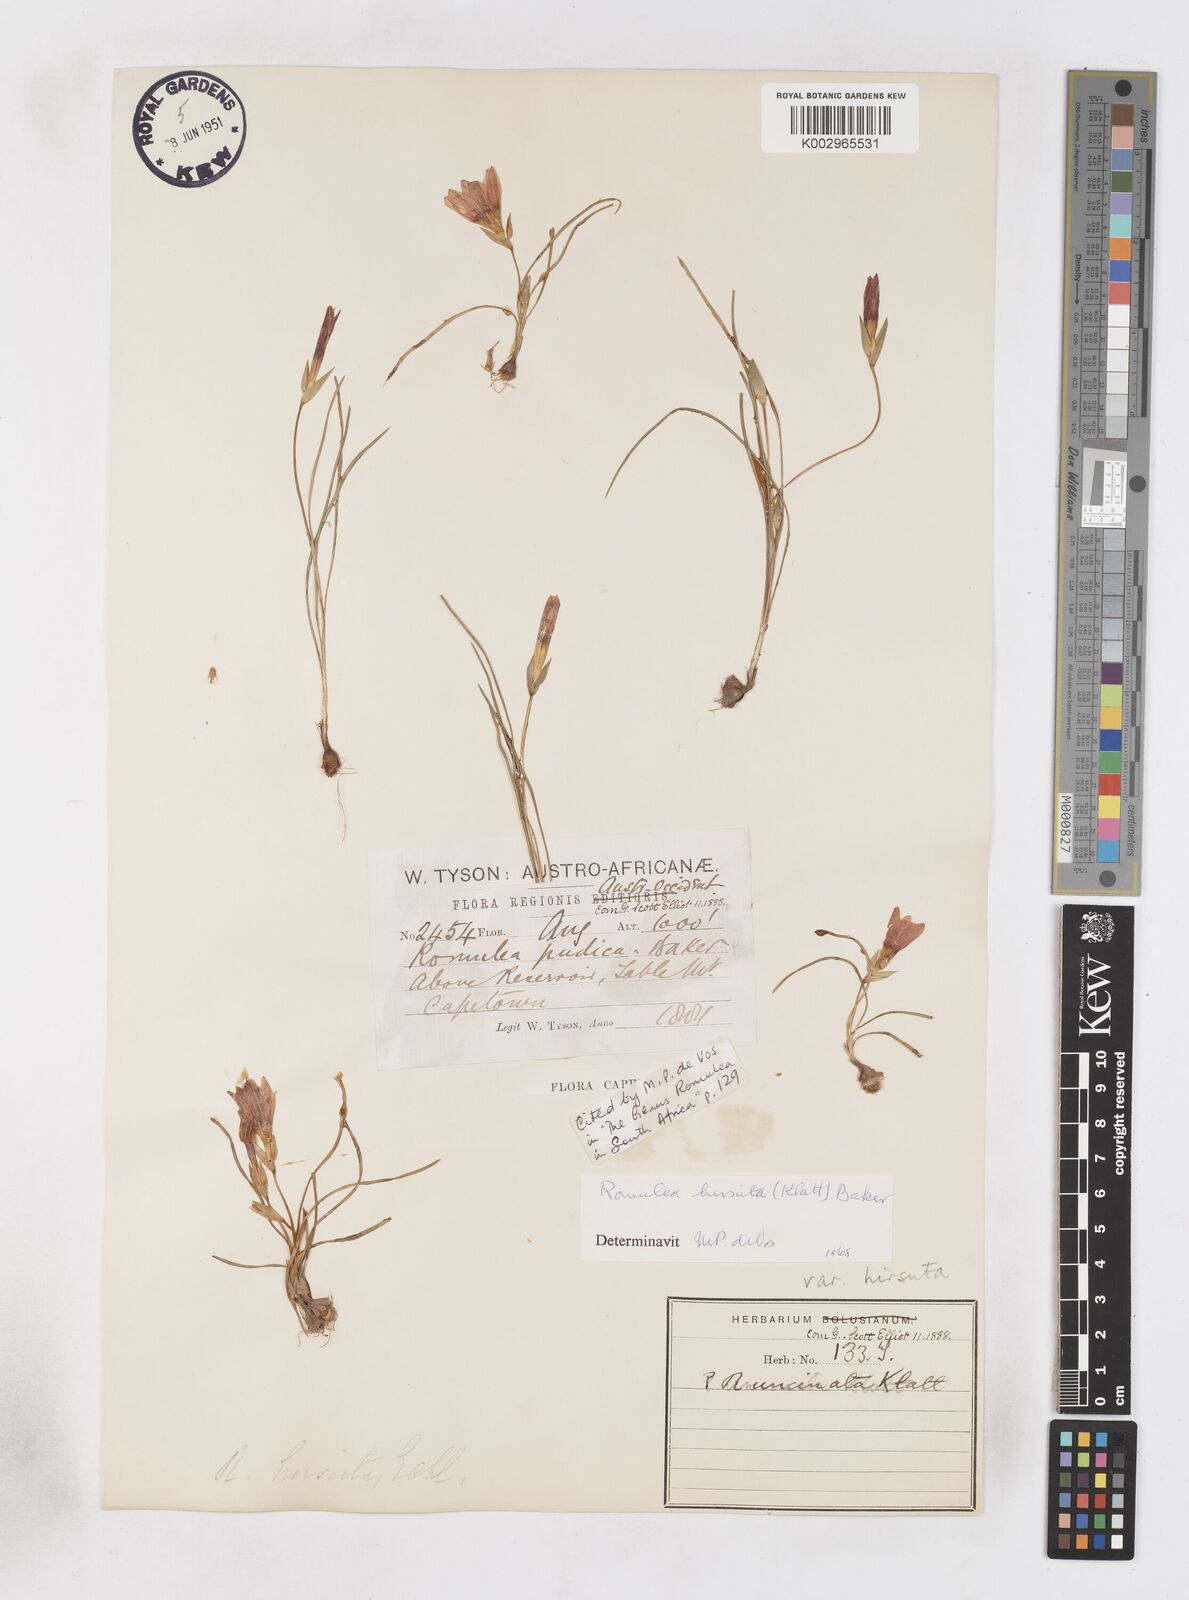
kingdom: Plantae
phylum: Tracheophyta
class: Liliopsida
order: Asparagales
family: Iridaceae
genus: Romulea
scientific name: Romulea hirsuta
